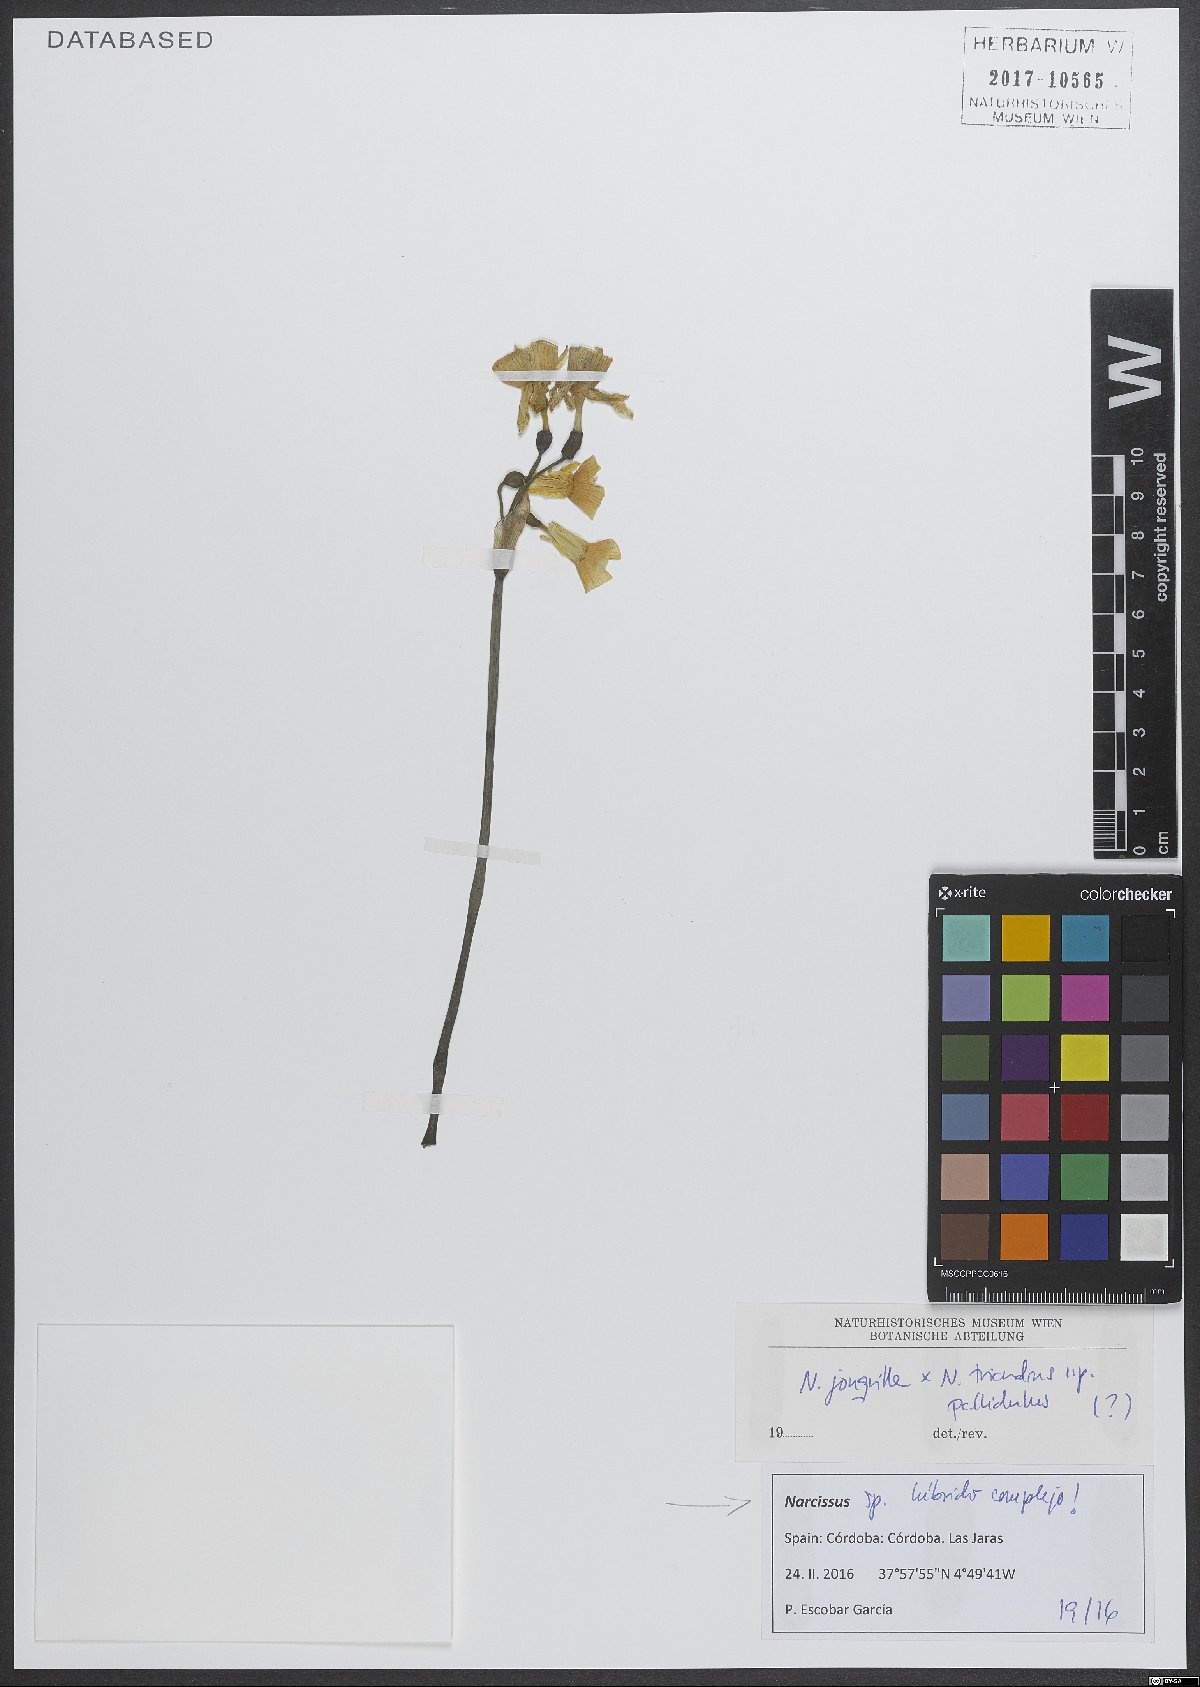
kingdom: Plantae
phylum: Tracheophyta
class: Liliopsida
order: Asparagales
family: Amaryllidaceae
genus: Narcissus
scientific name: Narcissus
